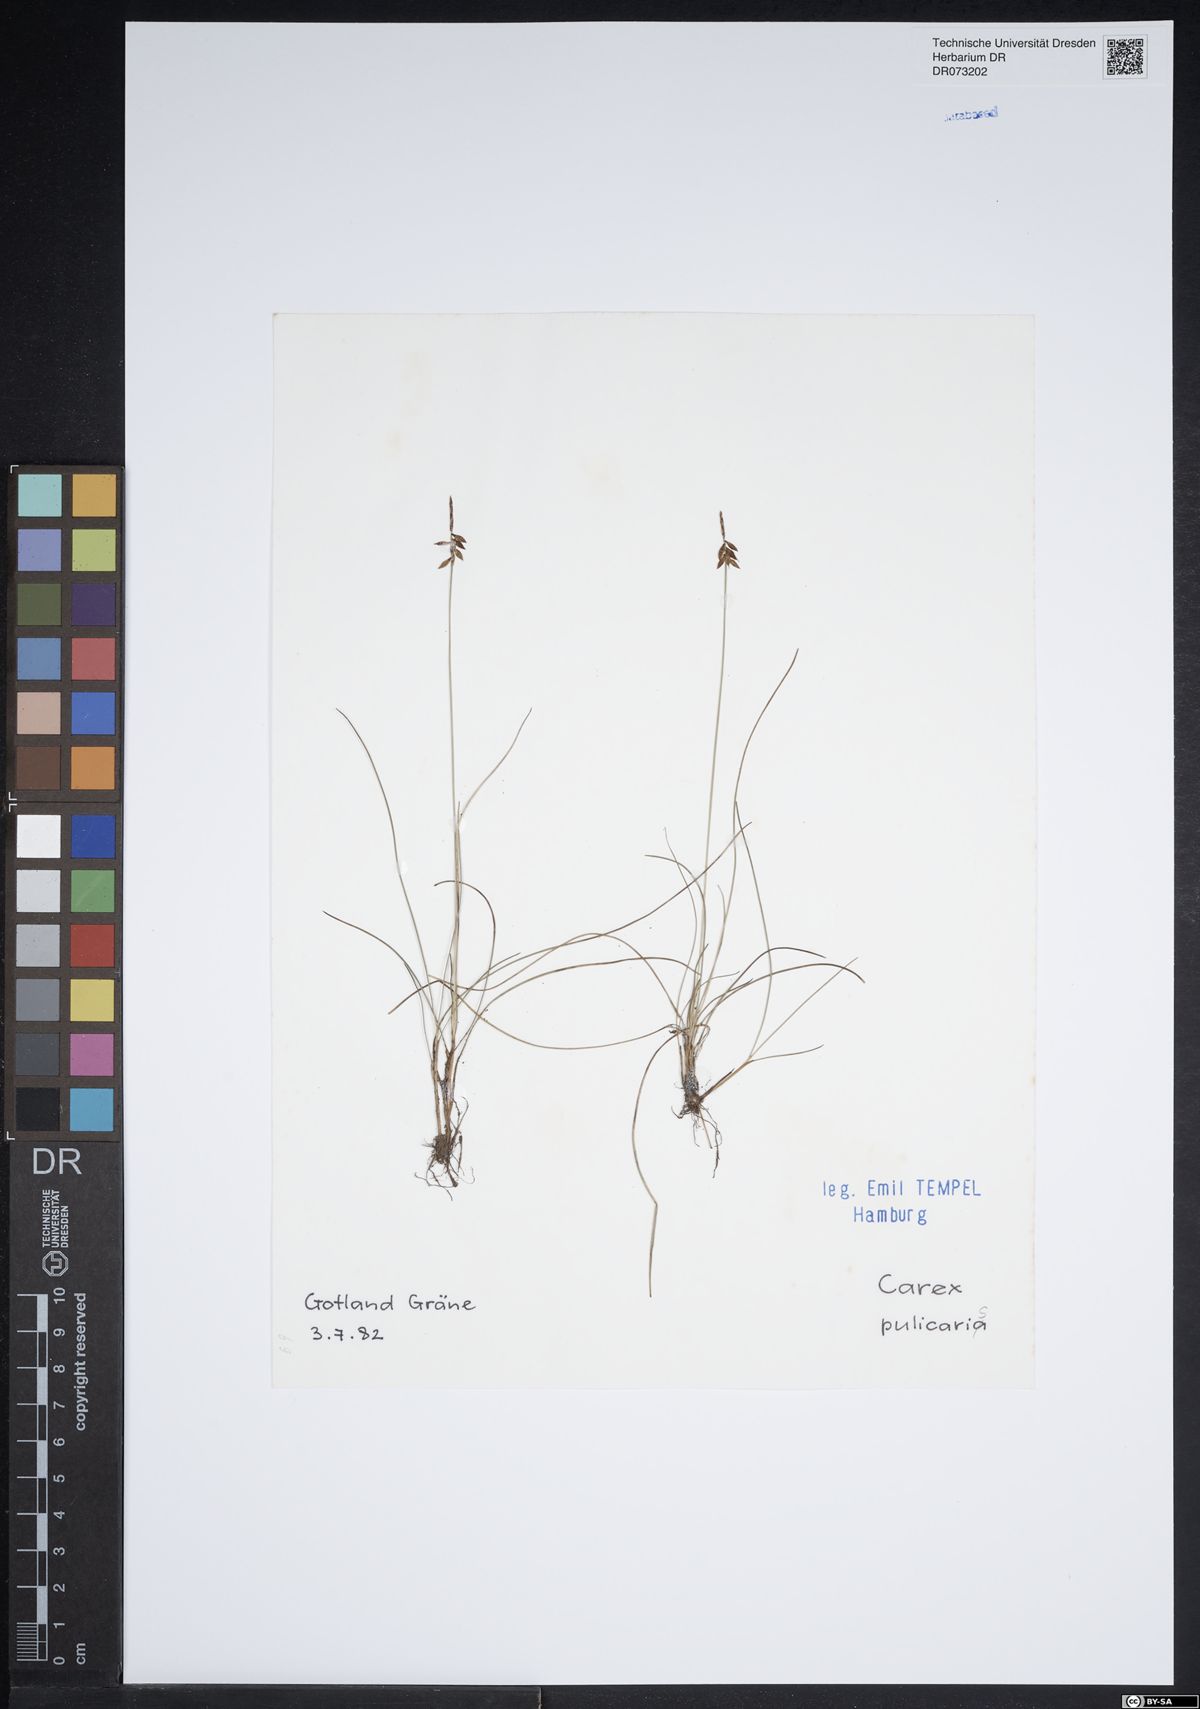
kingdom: Plantae
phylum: Tracheophyta
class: Liliopsida
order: Poales
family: Cyperaceae
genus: Carex
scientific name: Carex pulicaris
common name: Flea sedge
